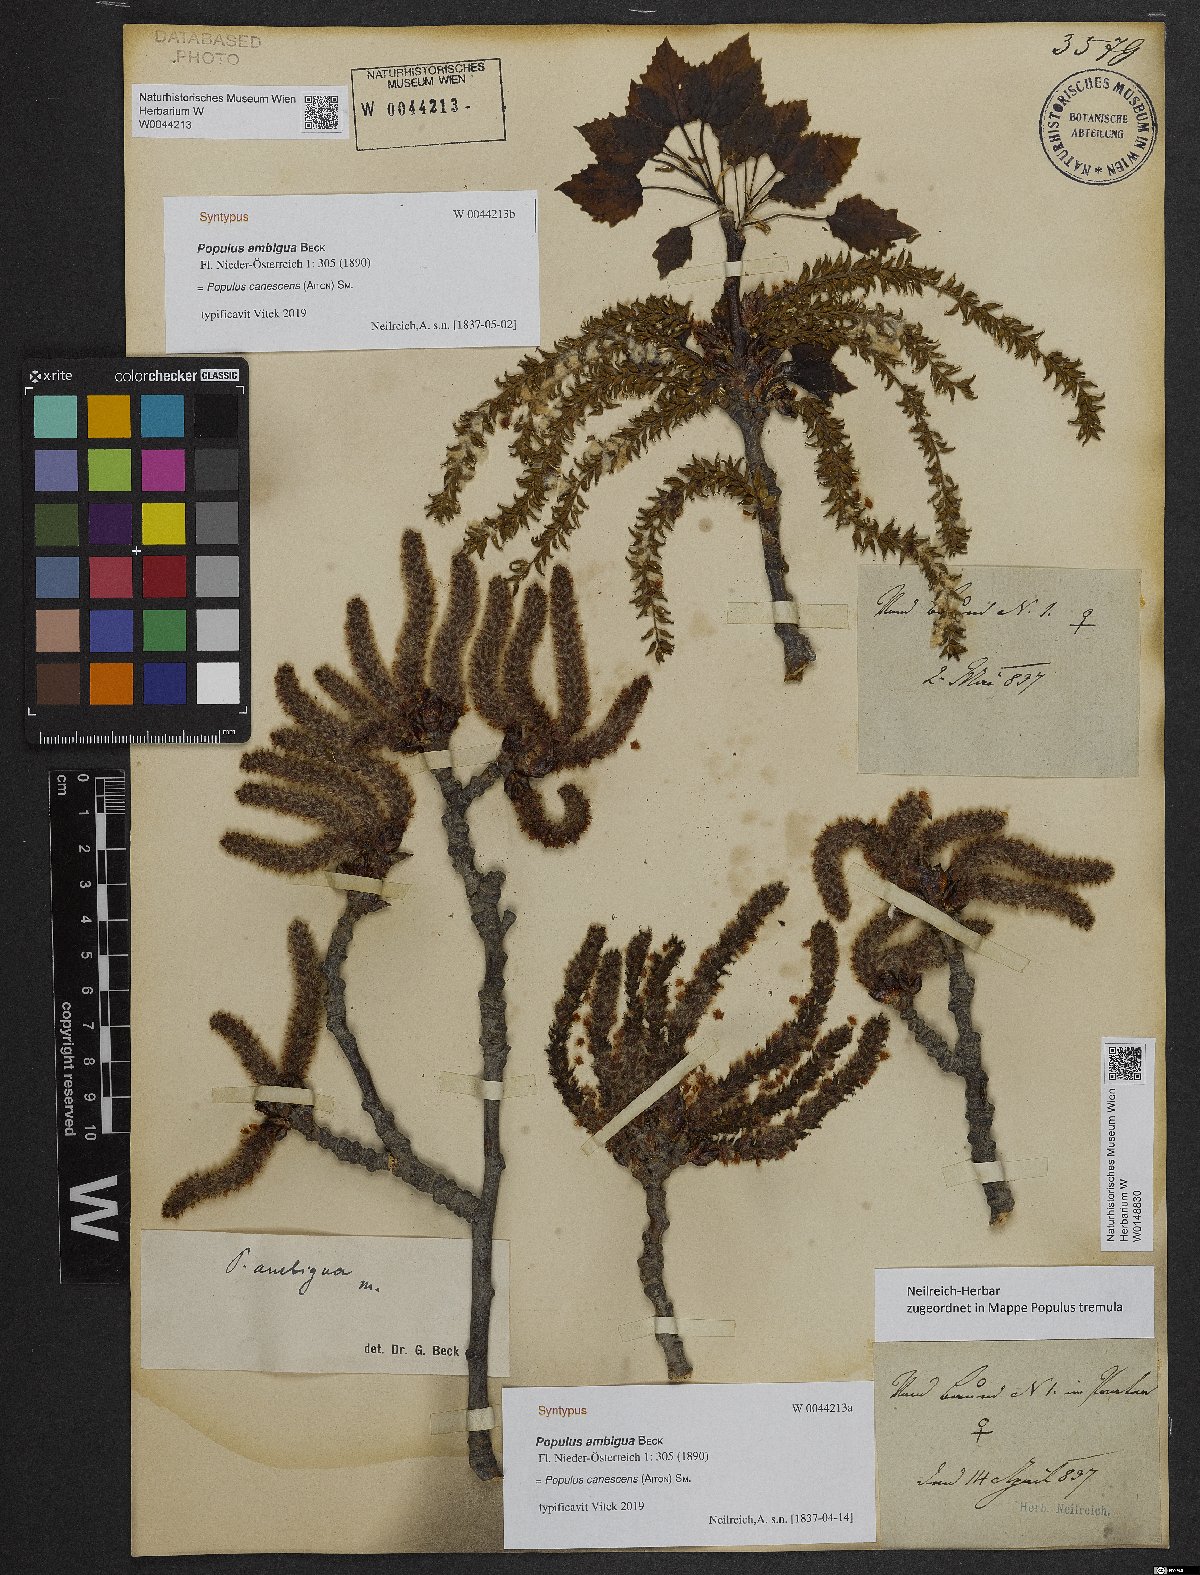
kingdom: Plantae
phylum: Tracheophyta
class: Magnoliopsida
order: Malpighiales
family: Salicaceae
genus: Populus
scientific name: Populus canescens
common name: Gray poplar
